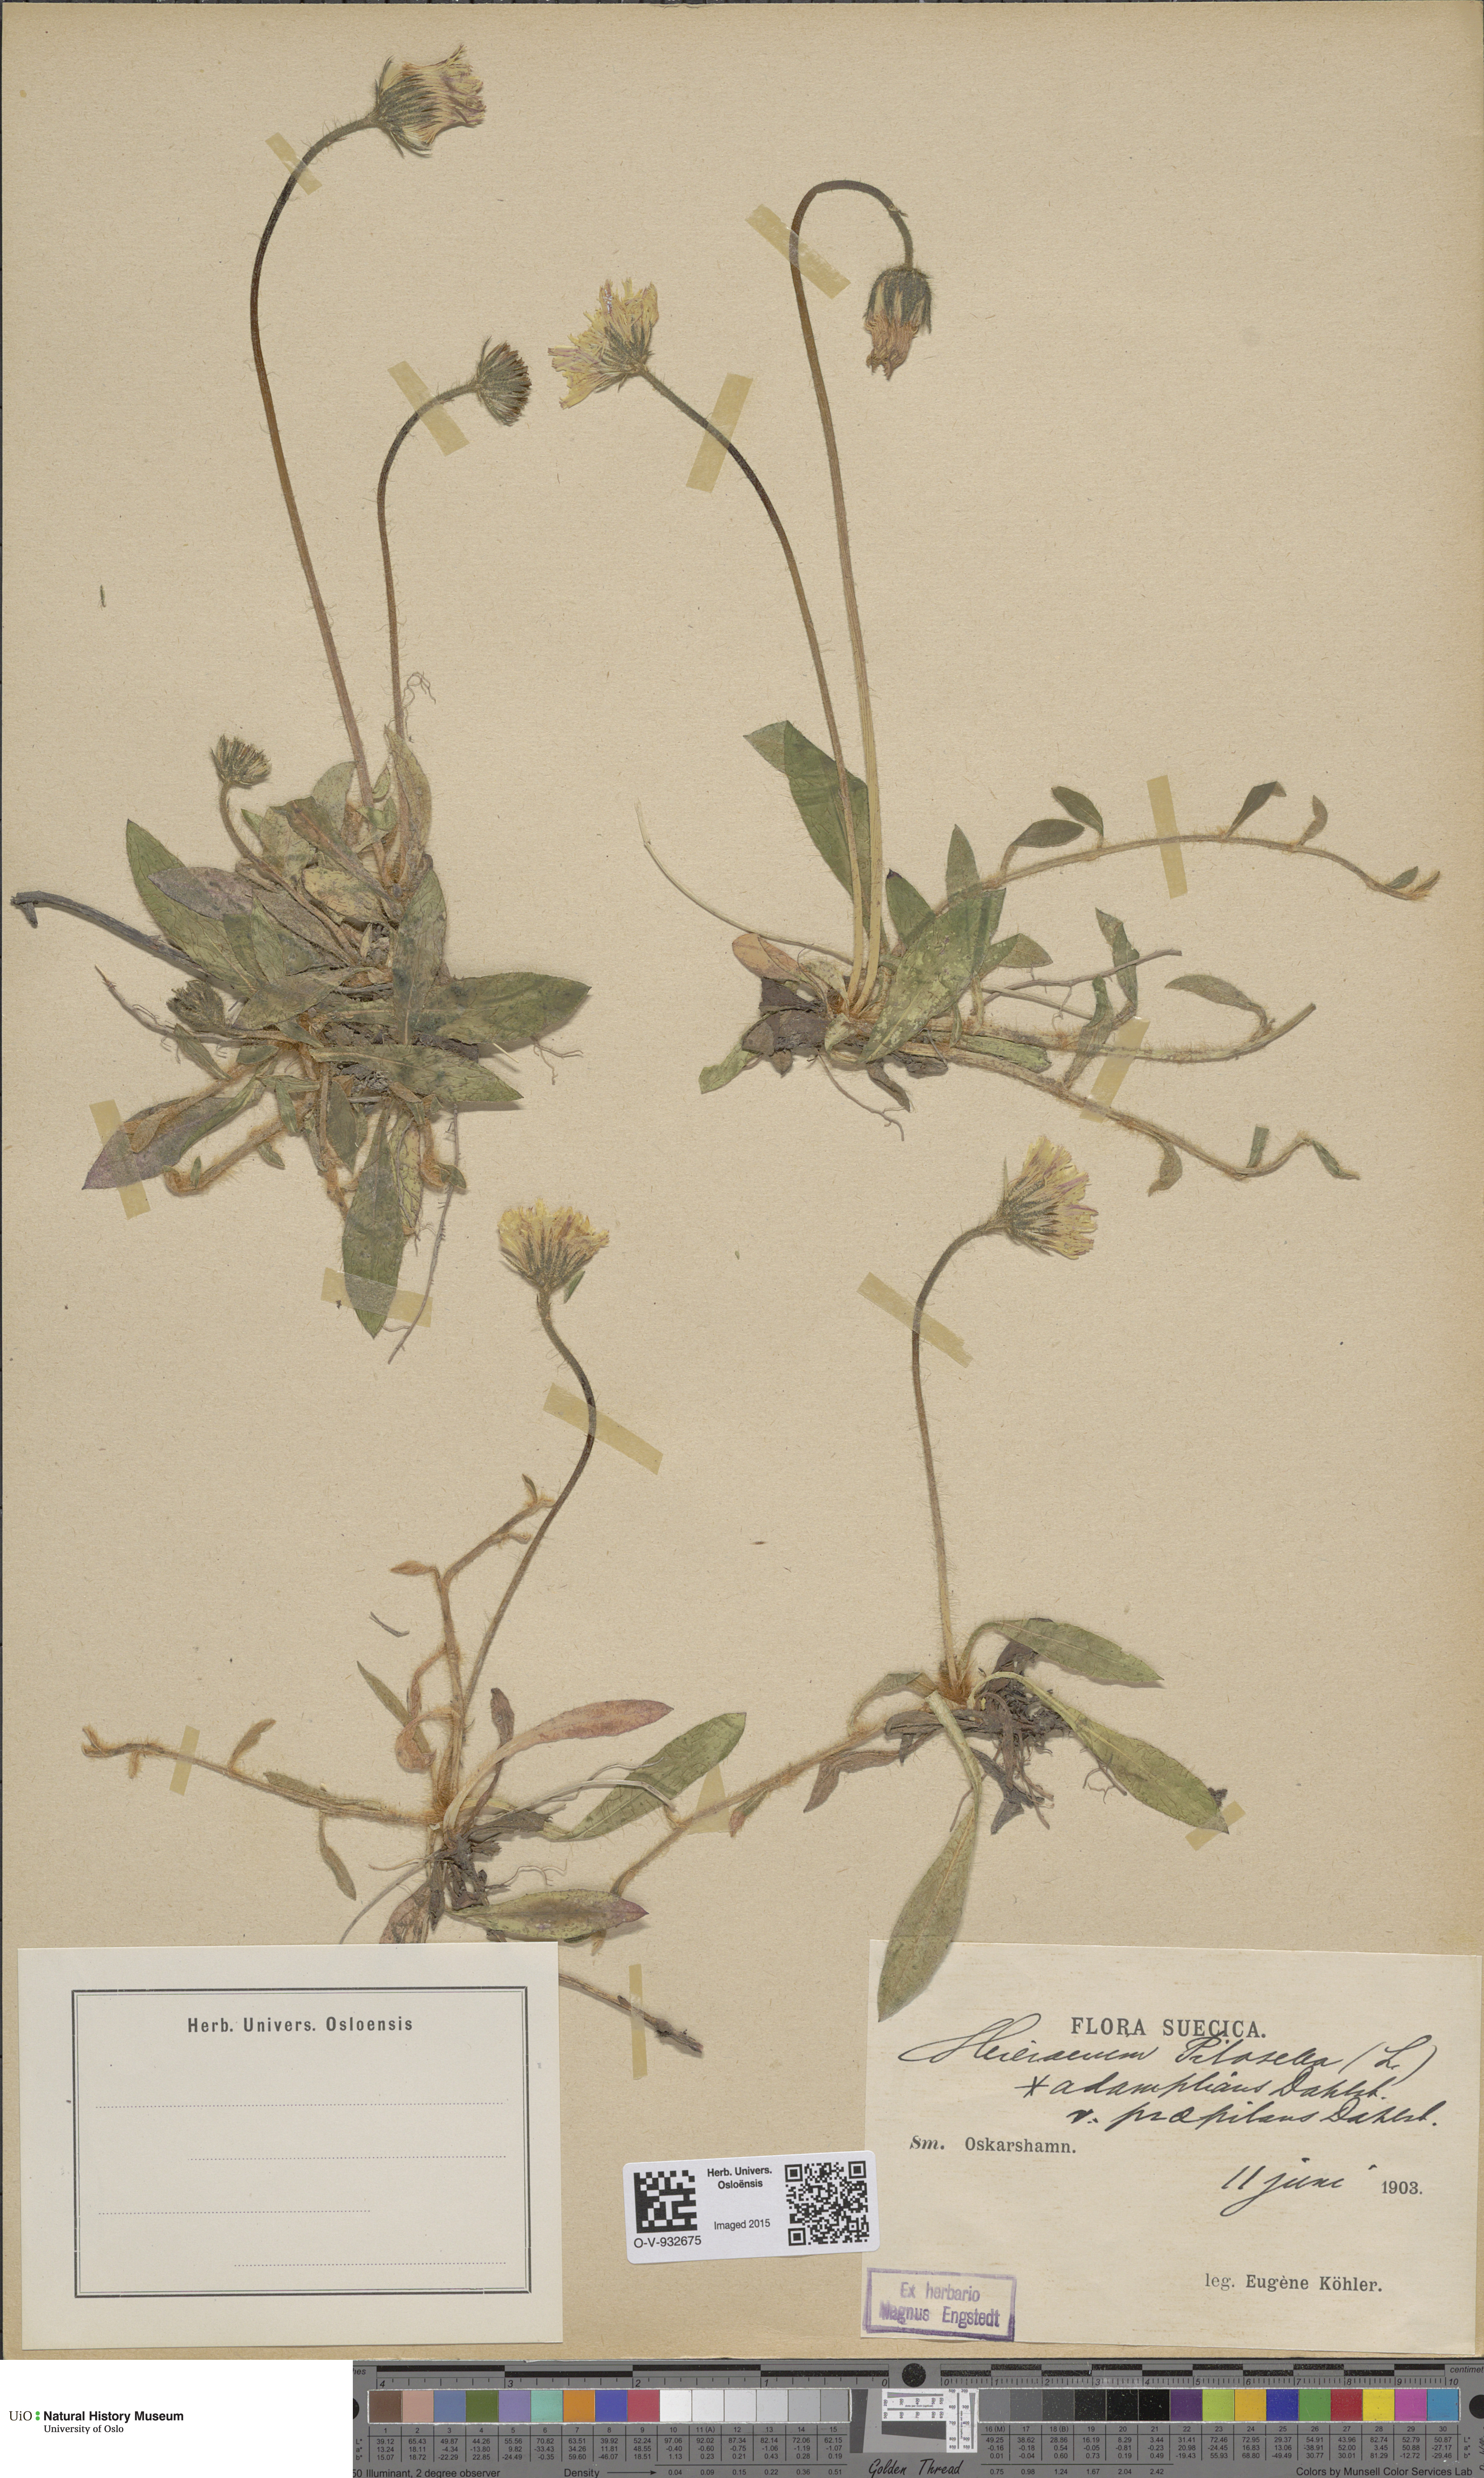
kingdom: Plantae
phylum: Tracheophyta
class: Magnoliopsida
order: Asterales
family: Asteraceae
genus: Pilosella
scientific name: Pilosella officinarum
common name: Mouse-ear hawkweed
